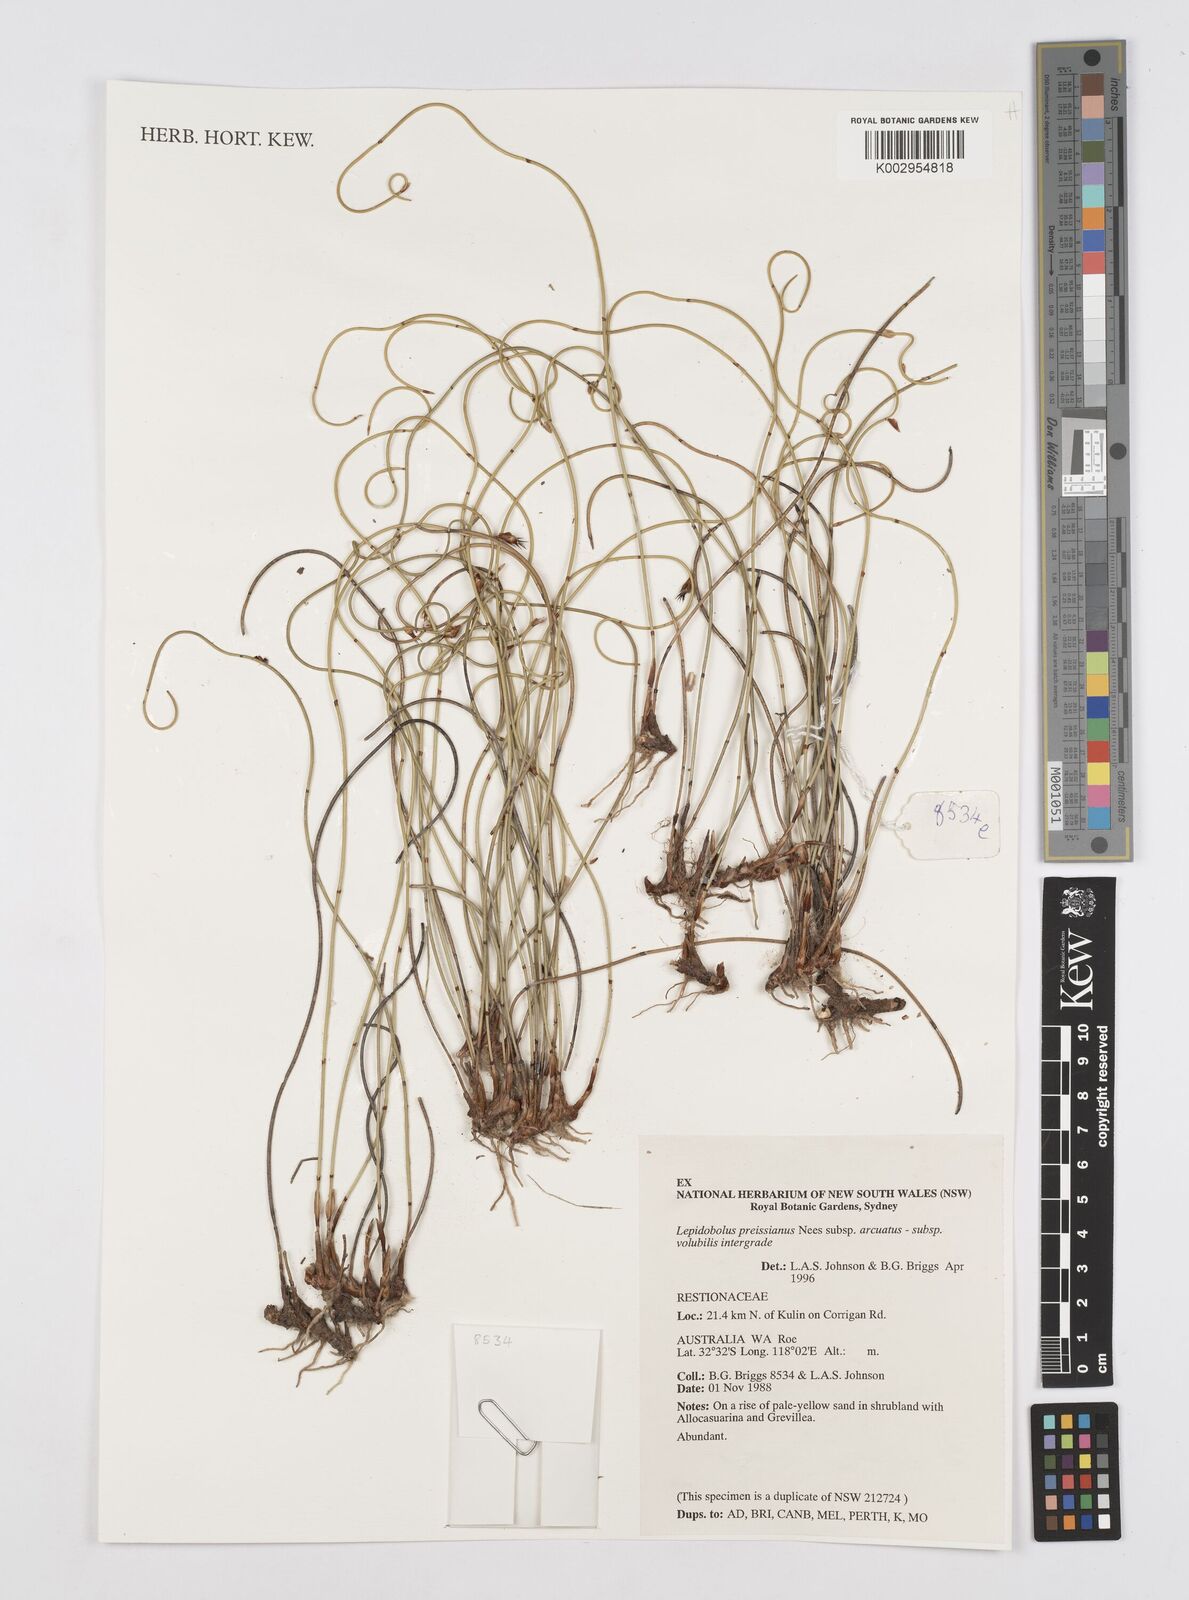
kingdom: Plantae
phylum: Tracheophyta
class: Liliopsida
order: Poales
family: Restionaceae
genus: Lepidobolus
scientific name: Lepidobolus preissianus
